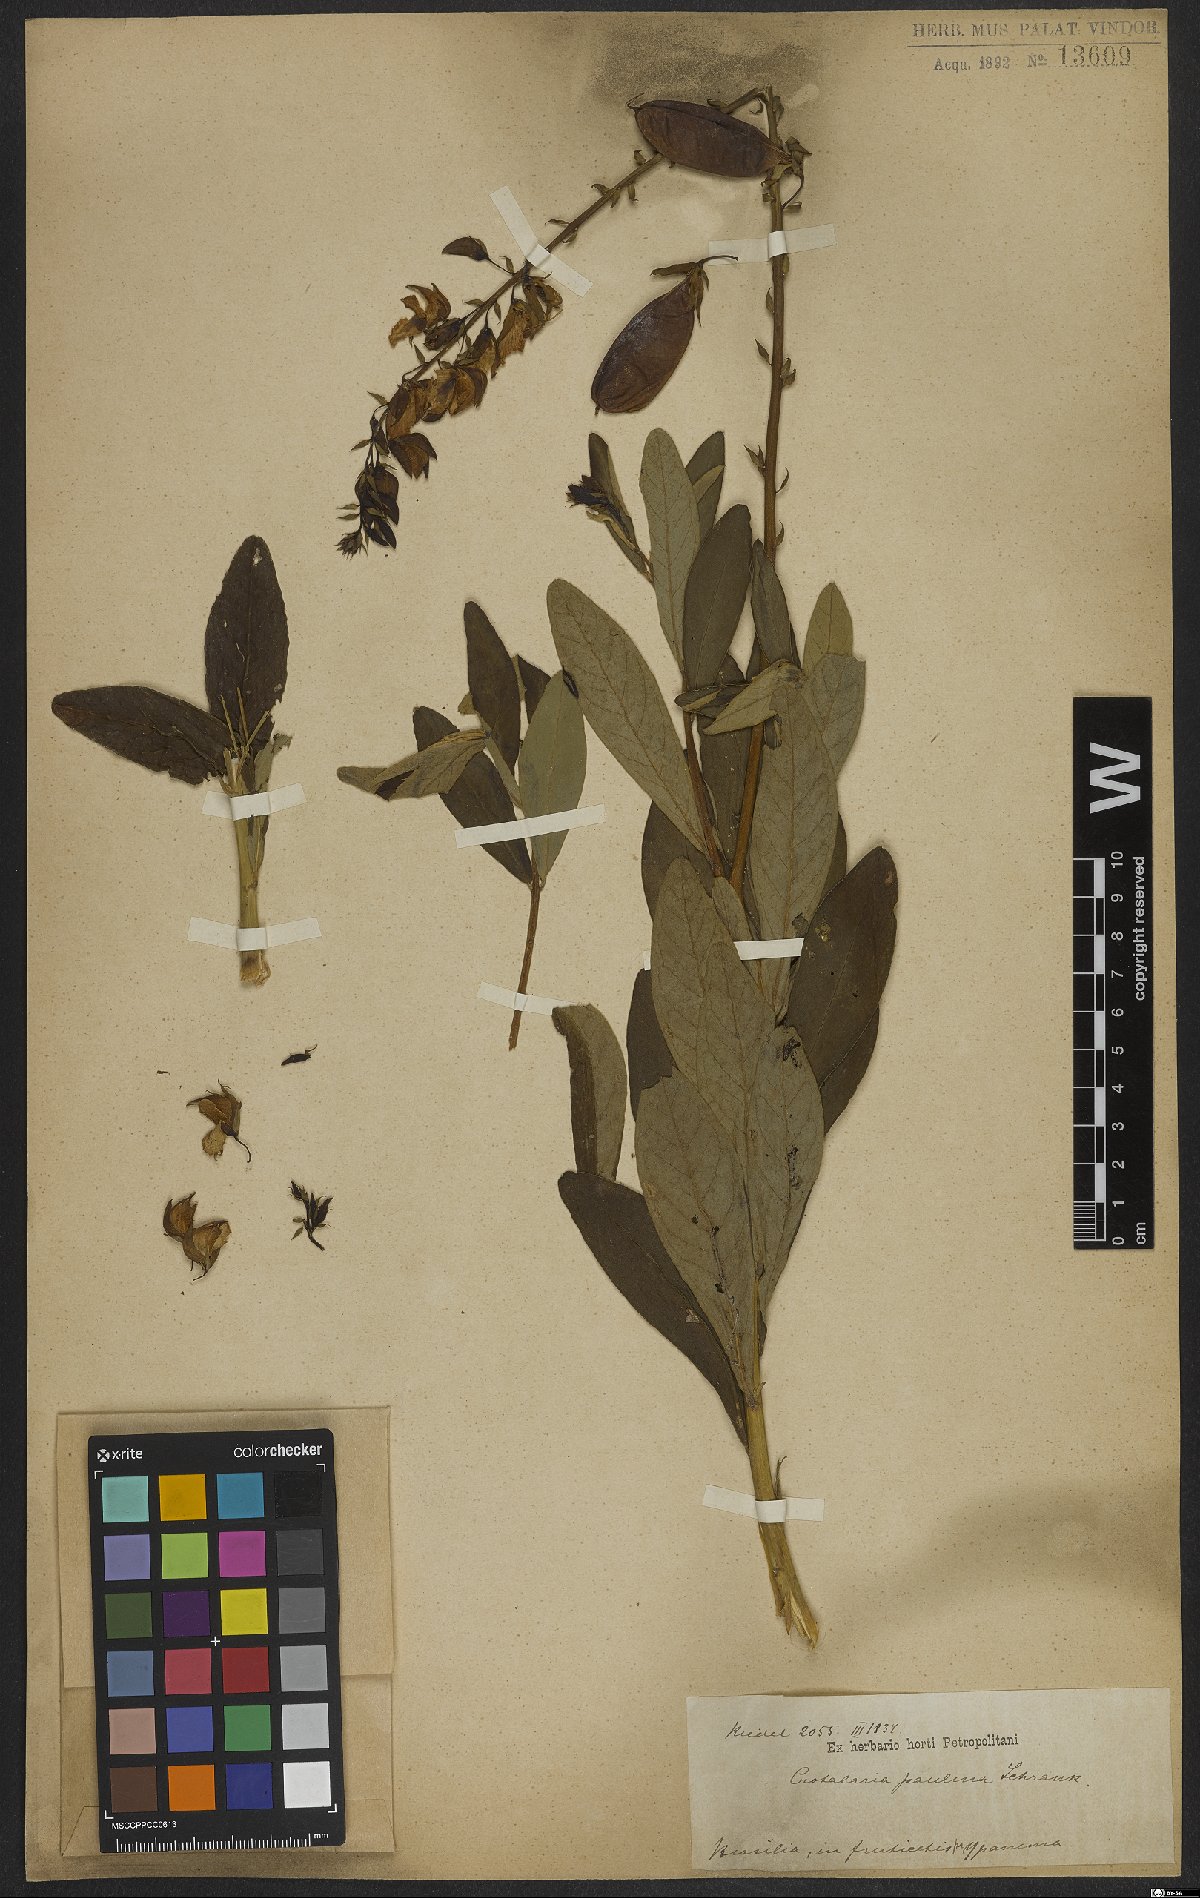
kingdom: Plantae
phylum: Tracheophyta
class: Magnoliopsida
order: Fabales
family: Fabaceae
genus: Crotalaria
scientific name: Crotalaria paulina
